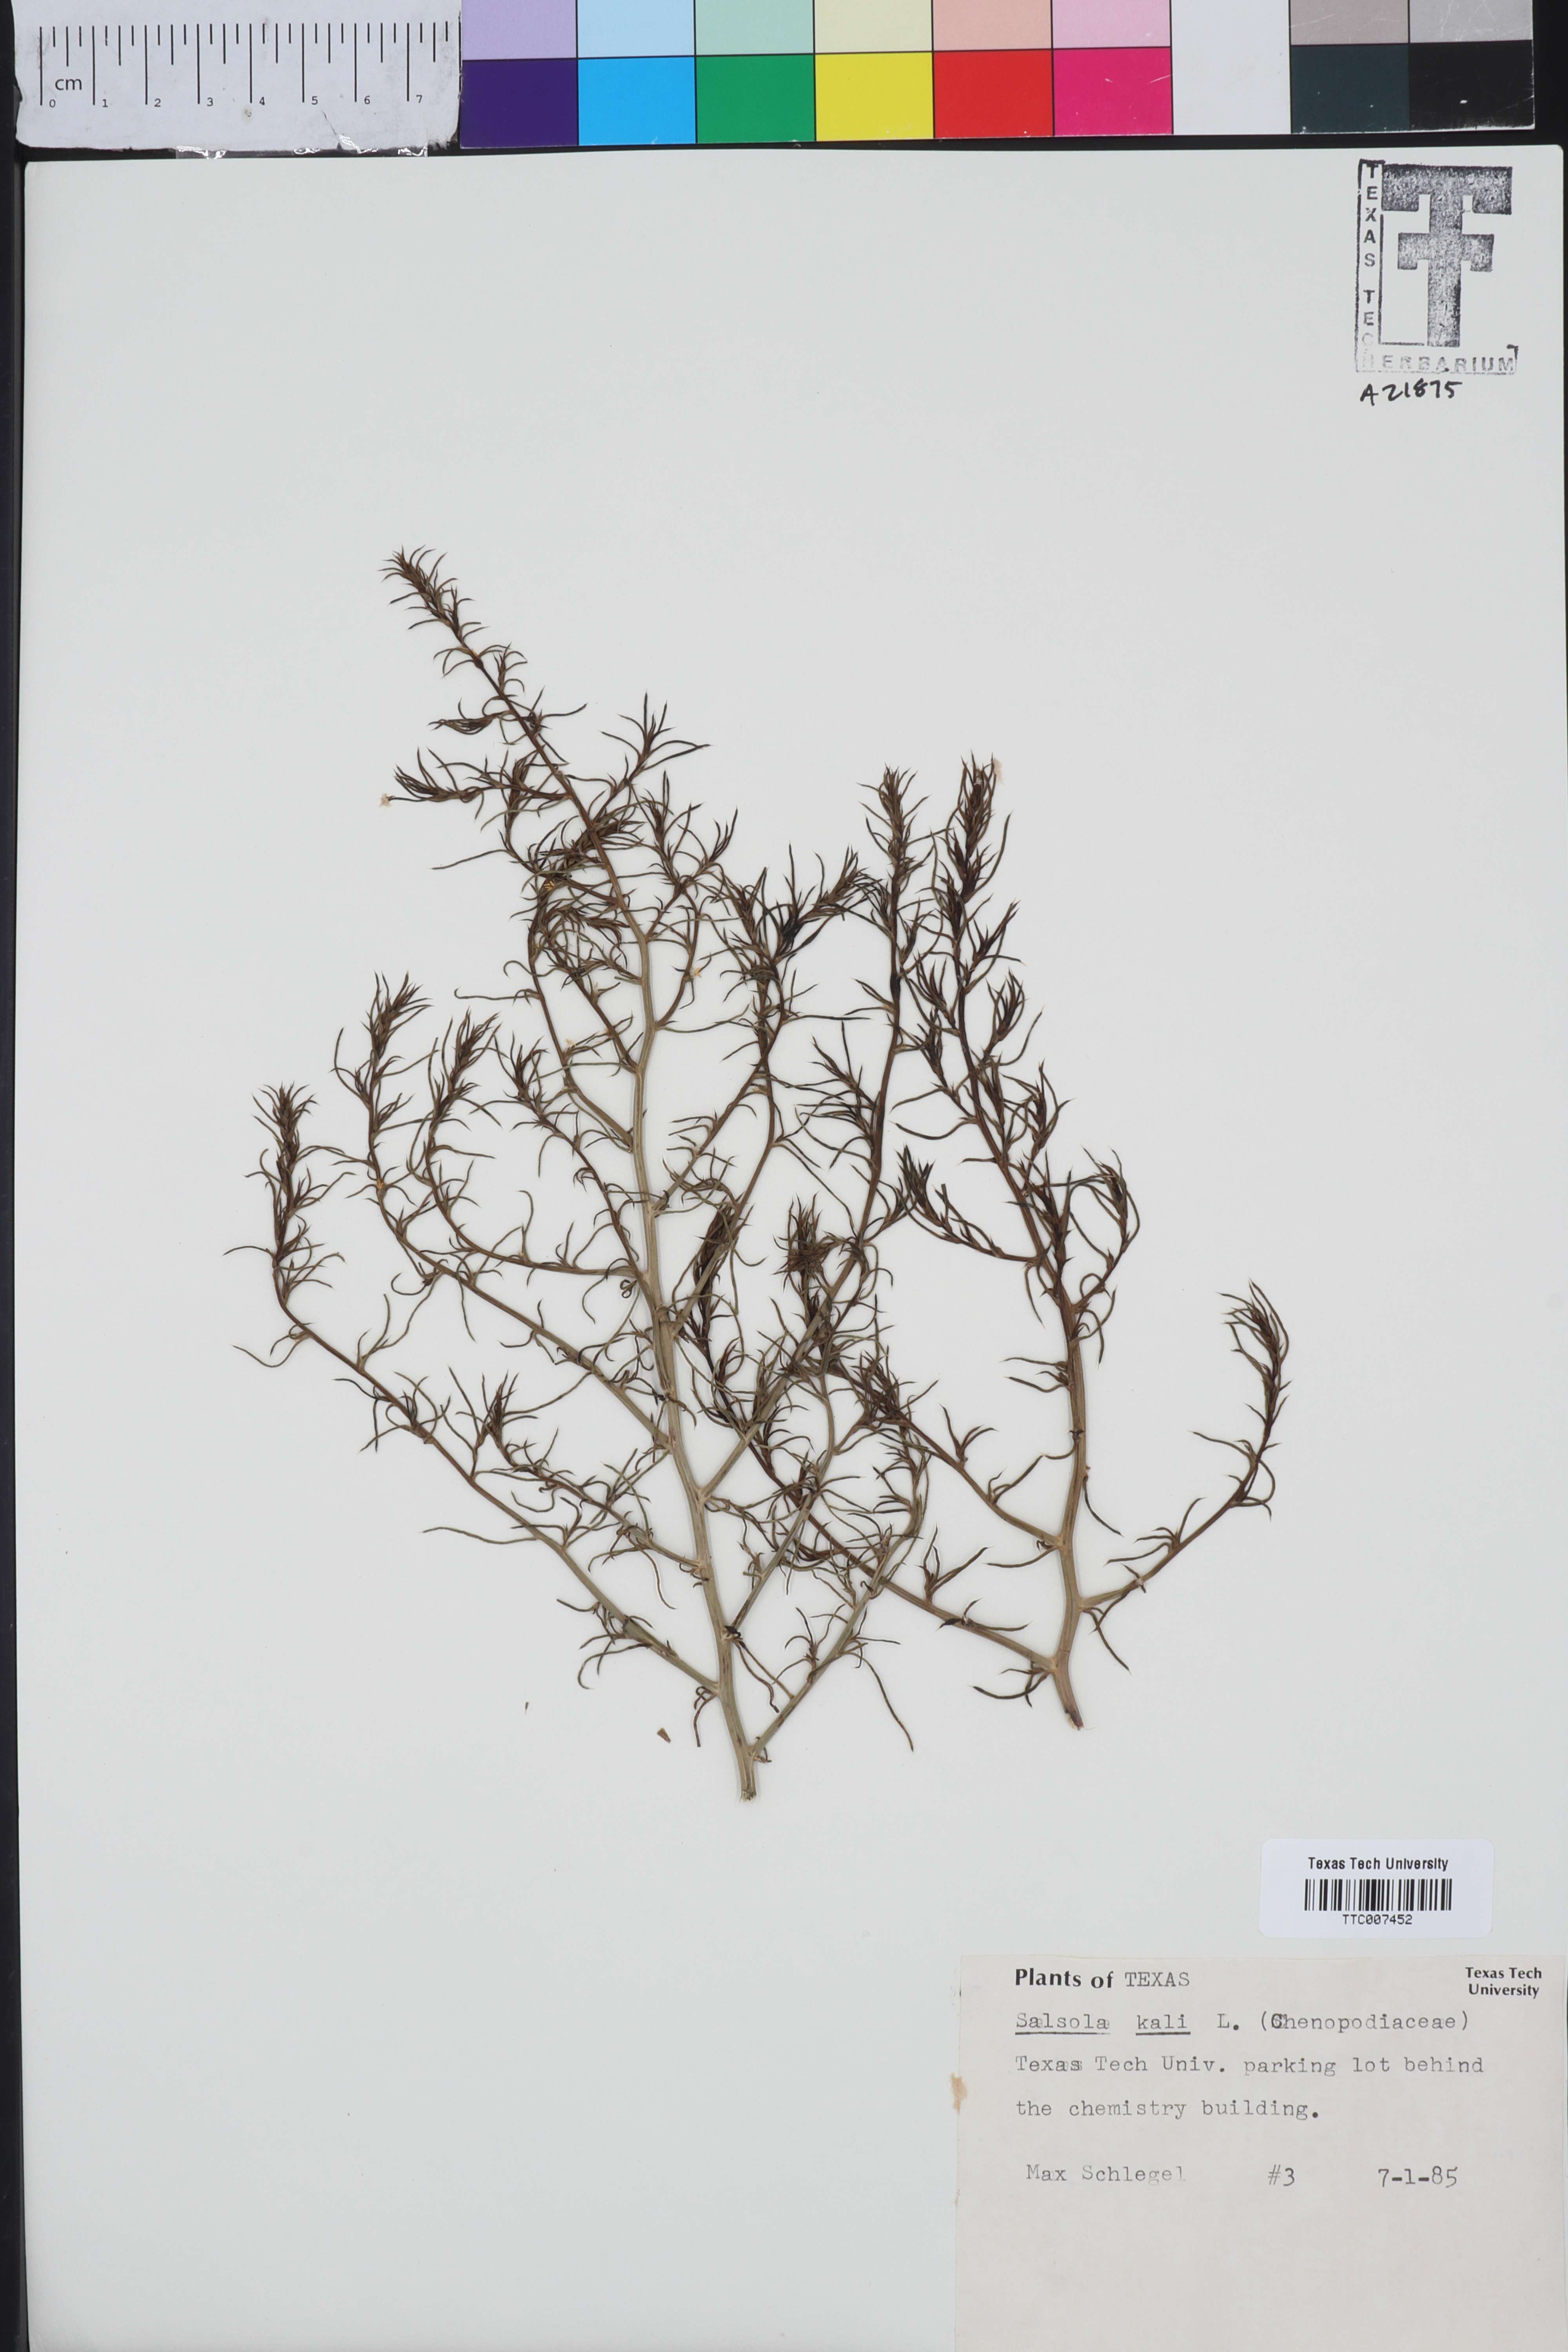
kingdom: Plantae
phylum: Tracheophyta
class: Magnoliopsida
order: Caryophyllales
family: Amaranthaceae
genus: Salsola
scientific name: Salsola kali
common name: Saltwort
